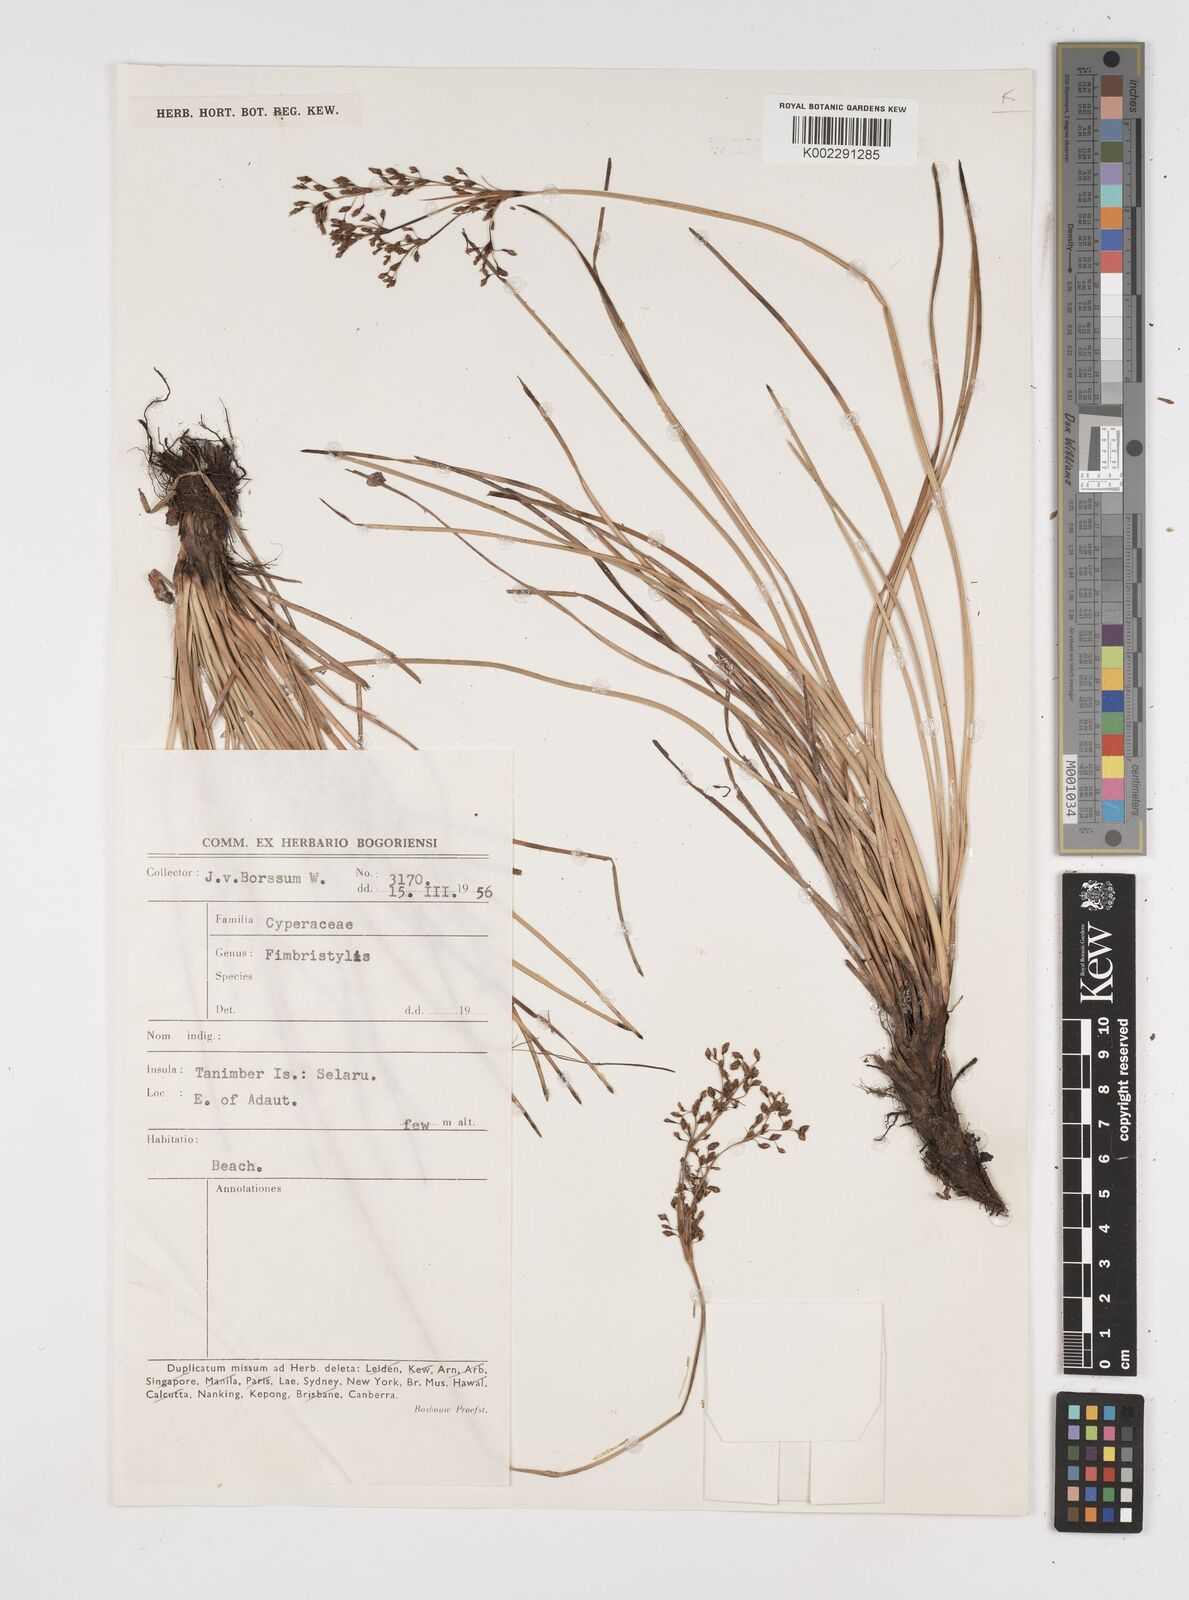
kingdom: Plantae
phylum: Tracheophyta
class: Liliopsida
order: Poales
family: Cyperaceae
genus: Fimbristylis
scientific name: Fimbristylis
